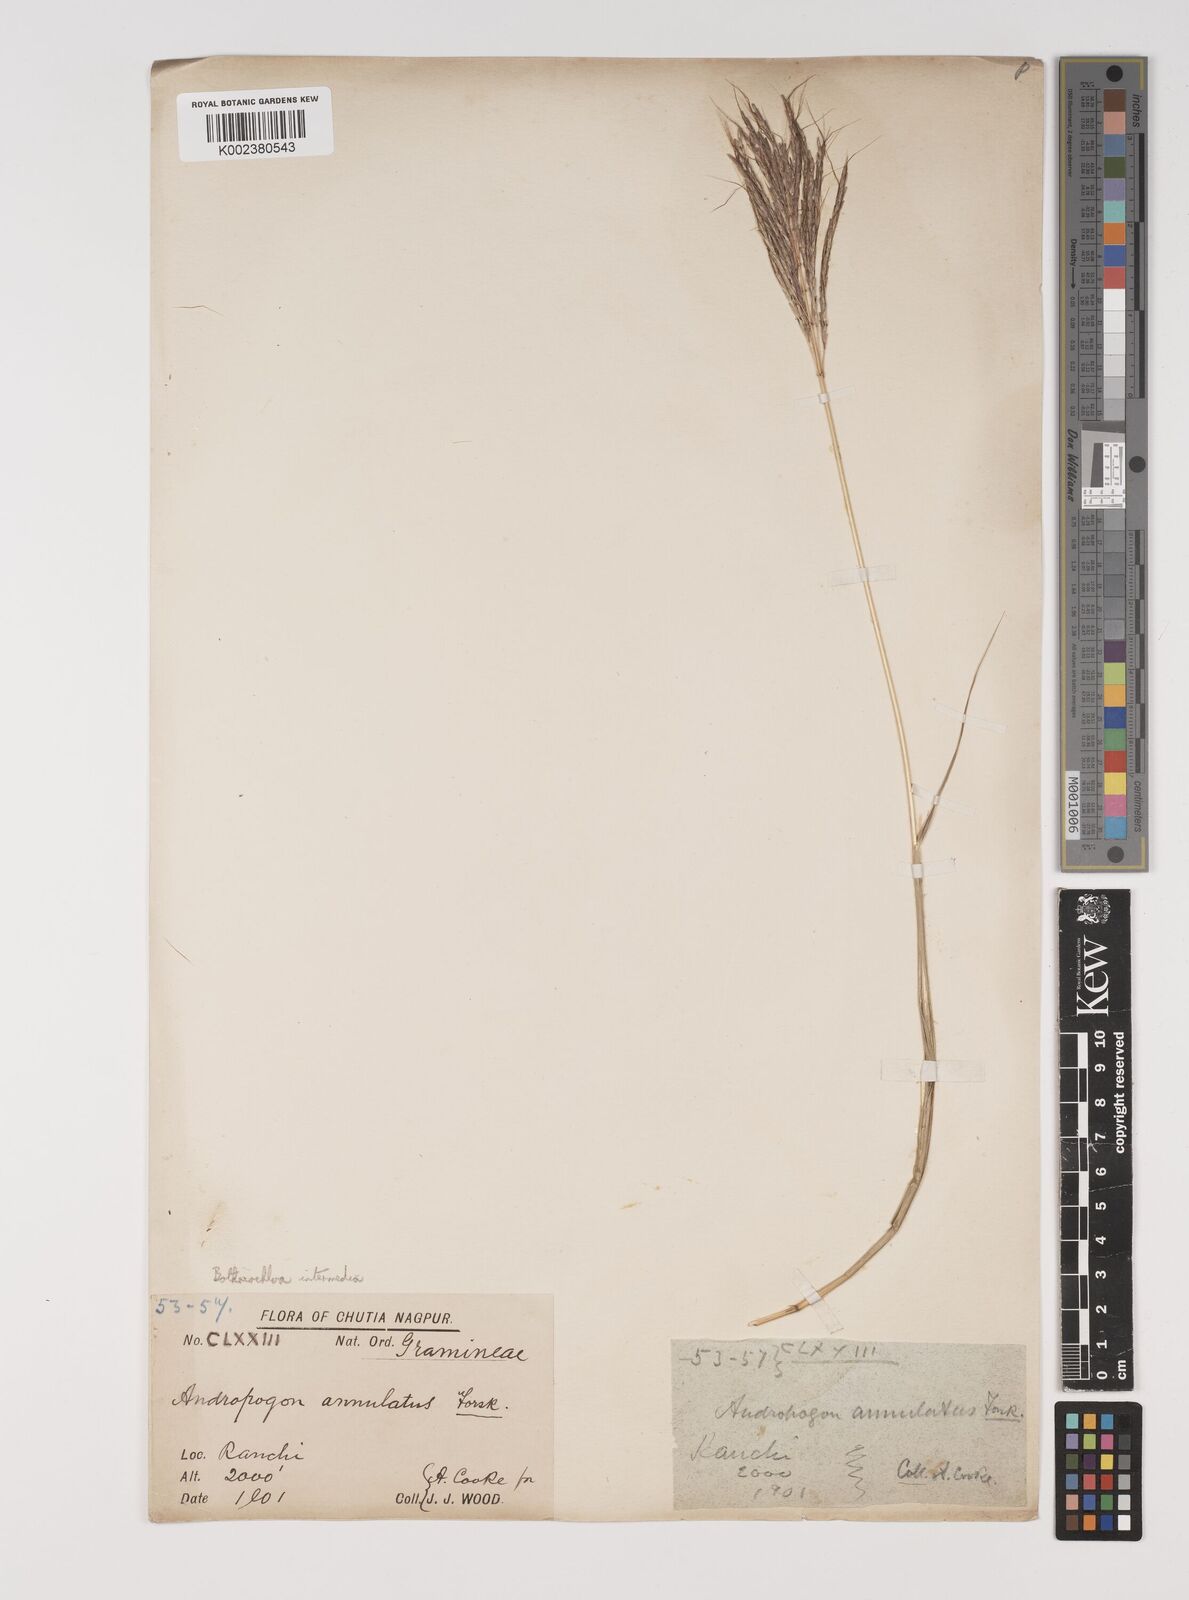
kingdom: Plantae
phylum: Tracheophyta
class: Liliopsida
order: Poales
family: Poaceae
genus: Bothriochloa
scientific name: Bothriochloa bladhii
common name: Caucasian bluestem
